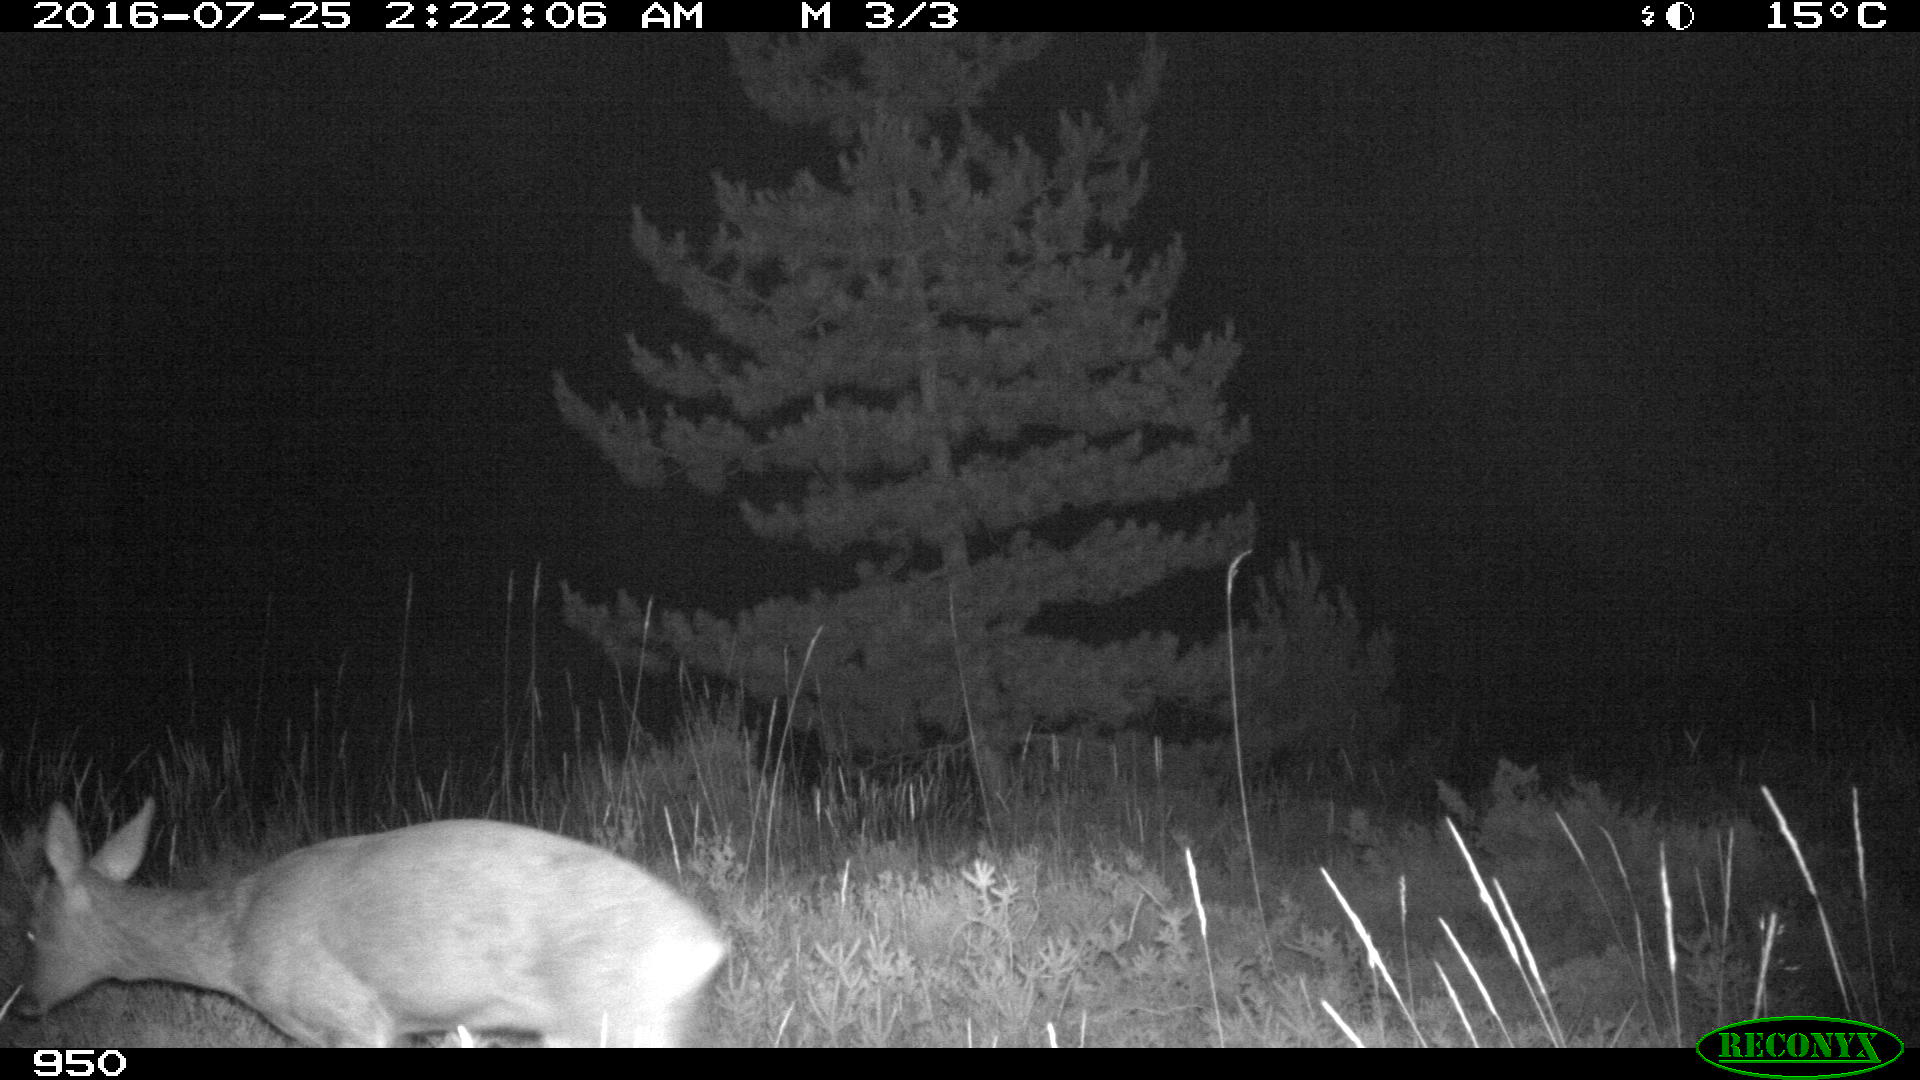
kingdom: Animalia
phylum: Chordata
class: Mammalia
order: Artiodactyla
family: Cervidae
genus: Capreolus
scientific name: Capreolus capreolus
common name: Western roe deer
